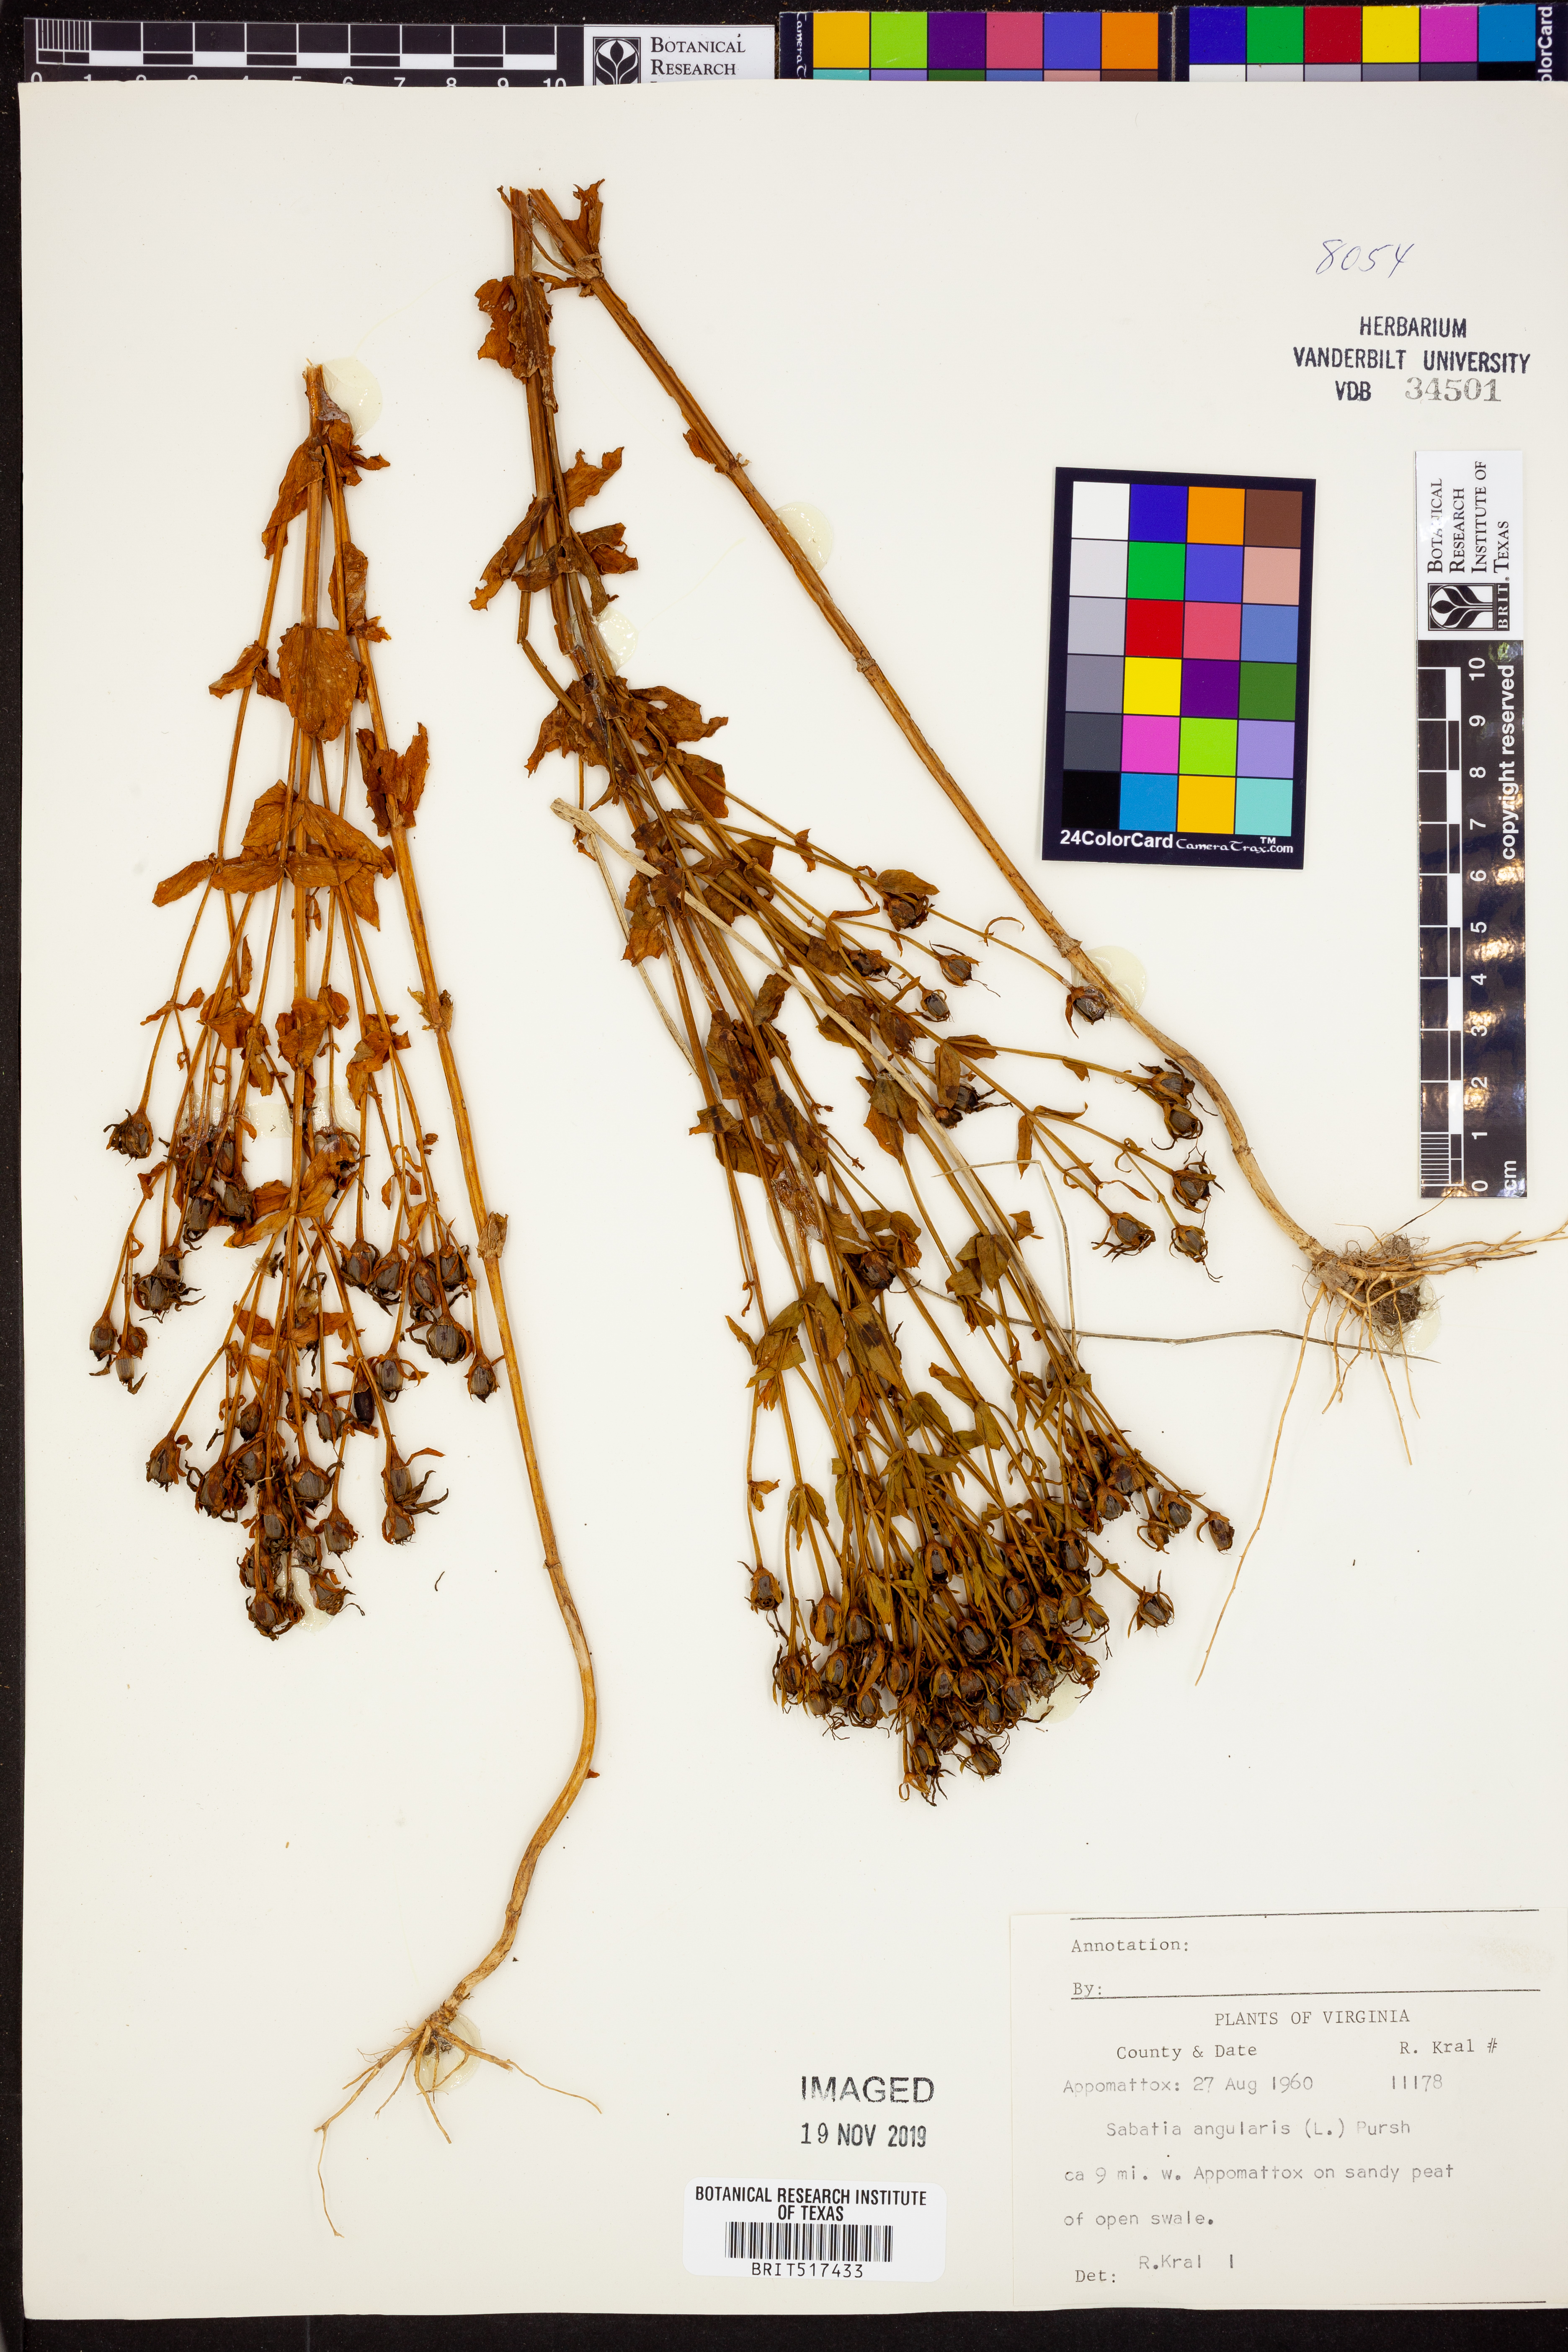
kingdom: Plantae
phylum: Tracheophyta
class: Magnoliopsida
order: Gentianales
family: Gentianaceae
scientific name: Gentianaceae
